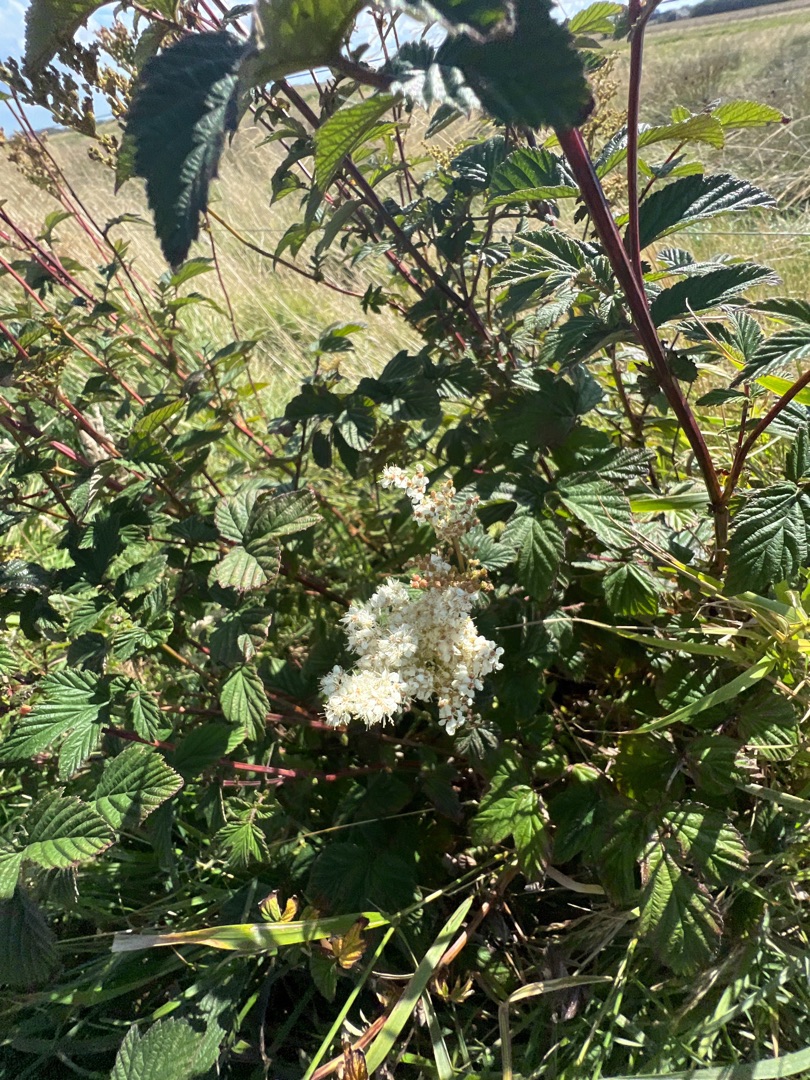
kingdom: Plantae
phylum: Tracheophyta
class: Magnoliopsida
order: Rosales
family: Rosaceae
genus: Filipendula
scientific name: Filipendula ulmaria
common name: Almindelig mjødurt
